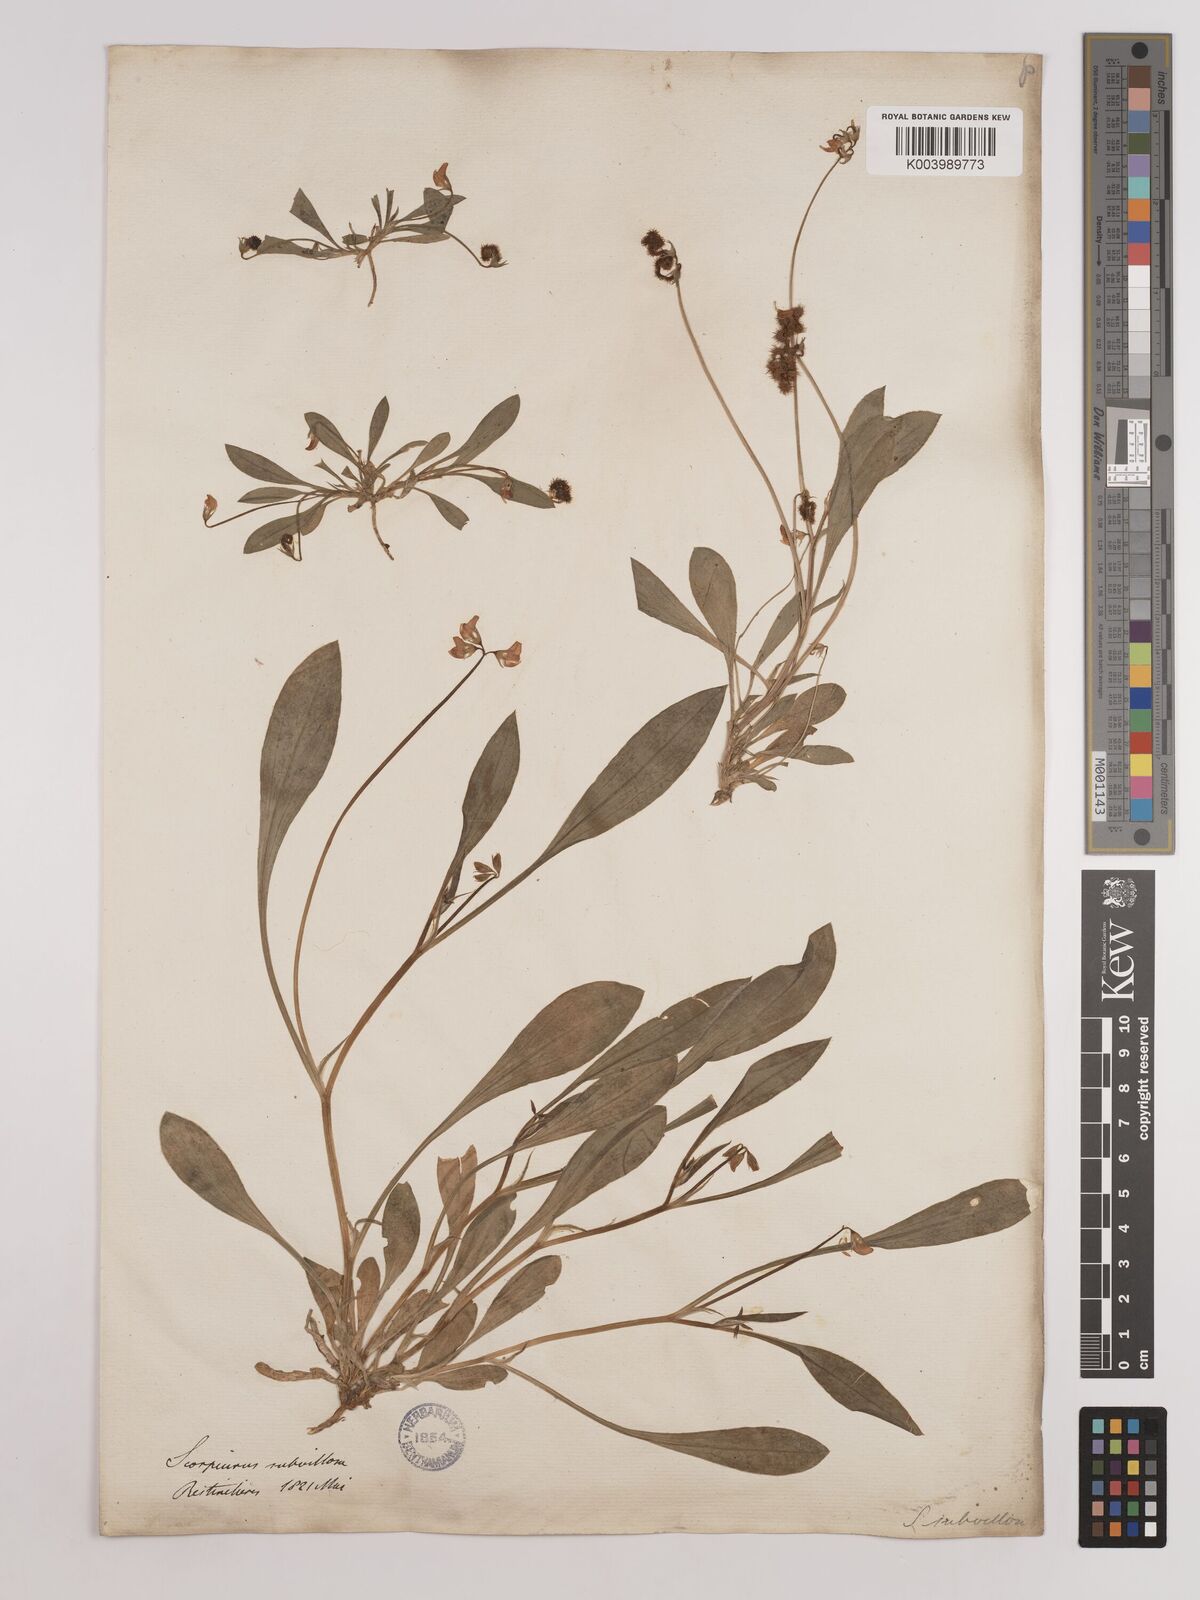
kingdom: Plantae
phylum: Tracheophyta
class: Magnoliopsida
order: Fabales
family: Fabaceae
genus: Scorpiurus
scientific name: Scorpiurus muricatus
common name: Caterpillar-plant
